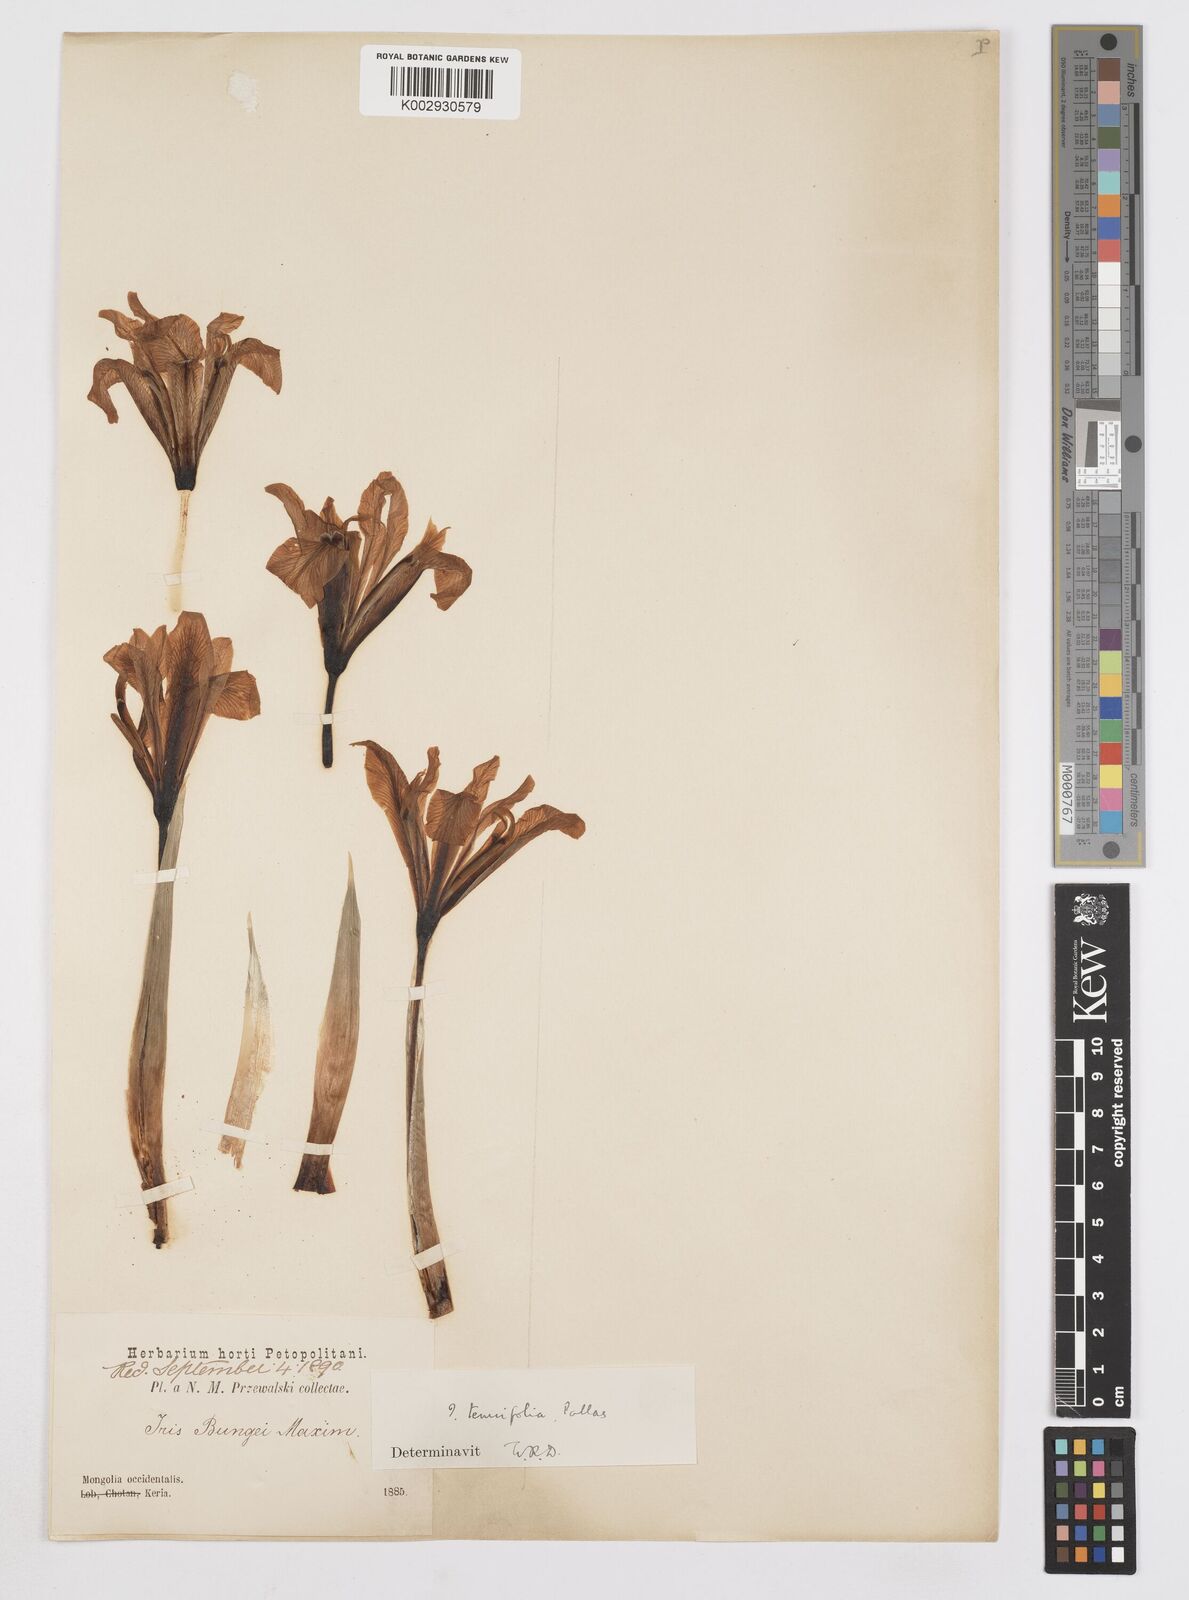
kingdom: Plantae
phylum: Tracheophyta
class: Liliopsida
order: Asparagales
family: Iridaceae
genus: Iris
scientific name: Iris tenuifolia
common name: Slender-leaf iris
